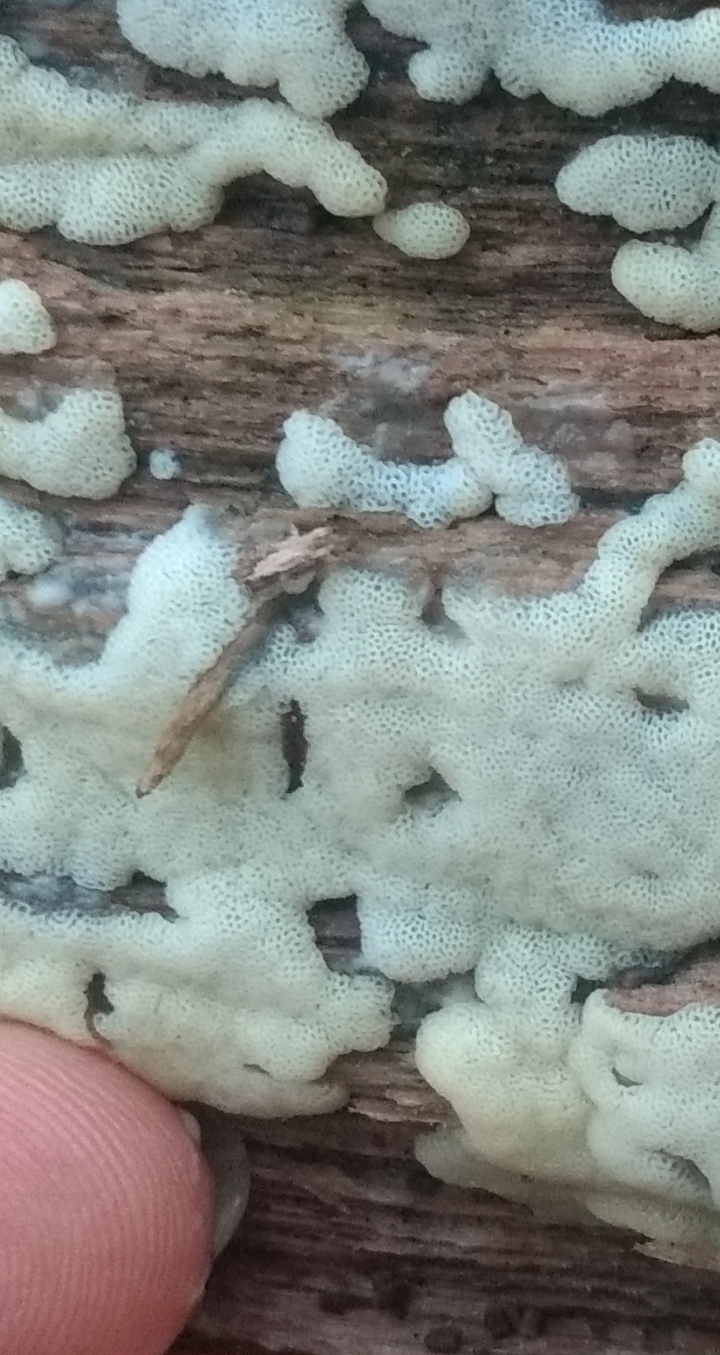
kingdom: Protozoa
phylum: Mycetozoa
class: Protosteliomycetes
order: Ceratiomyxales
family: Ceratiomyxaceae
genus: Ceratiomyxa
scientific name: Ceratiomyxa fruticulosa
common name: Honeycomb coral slime mold
